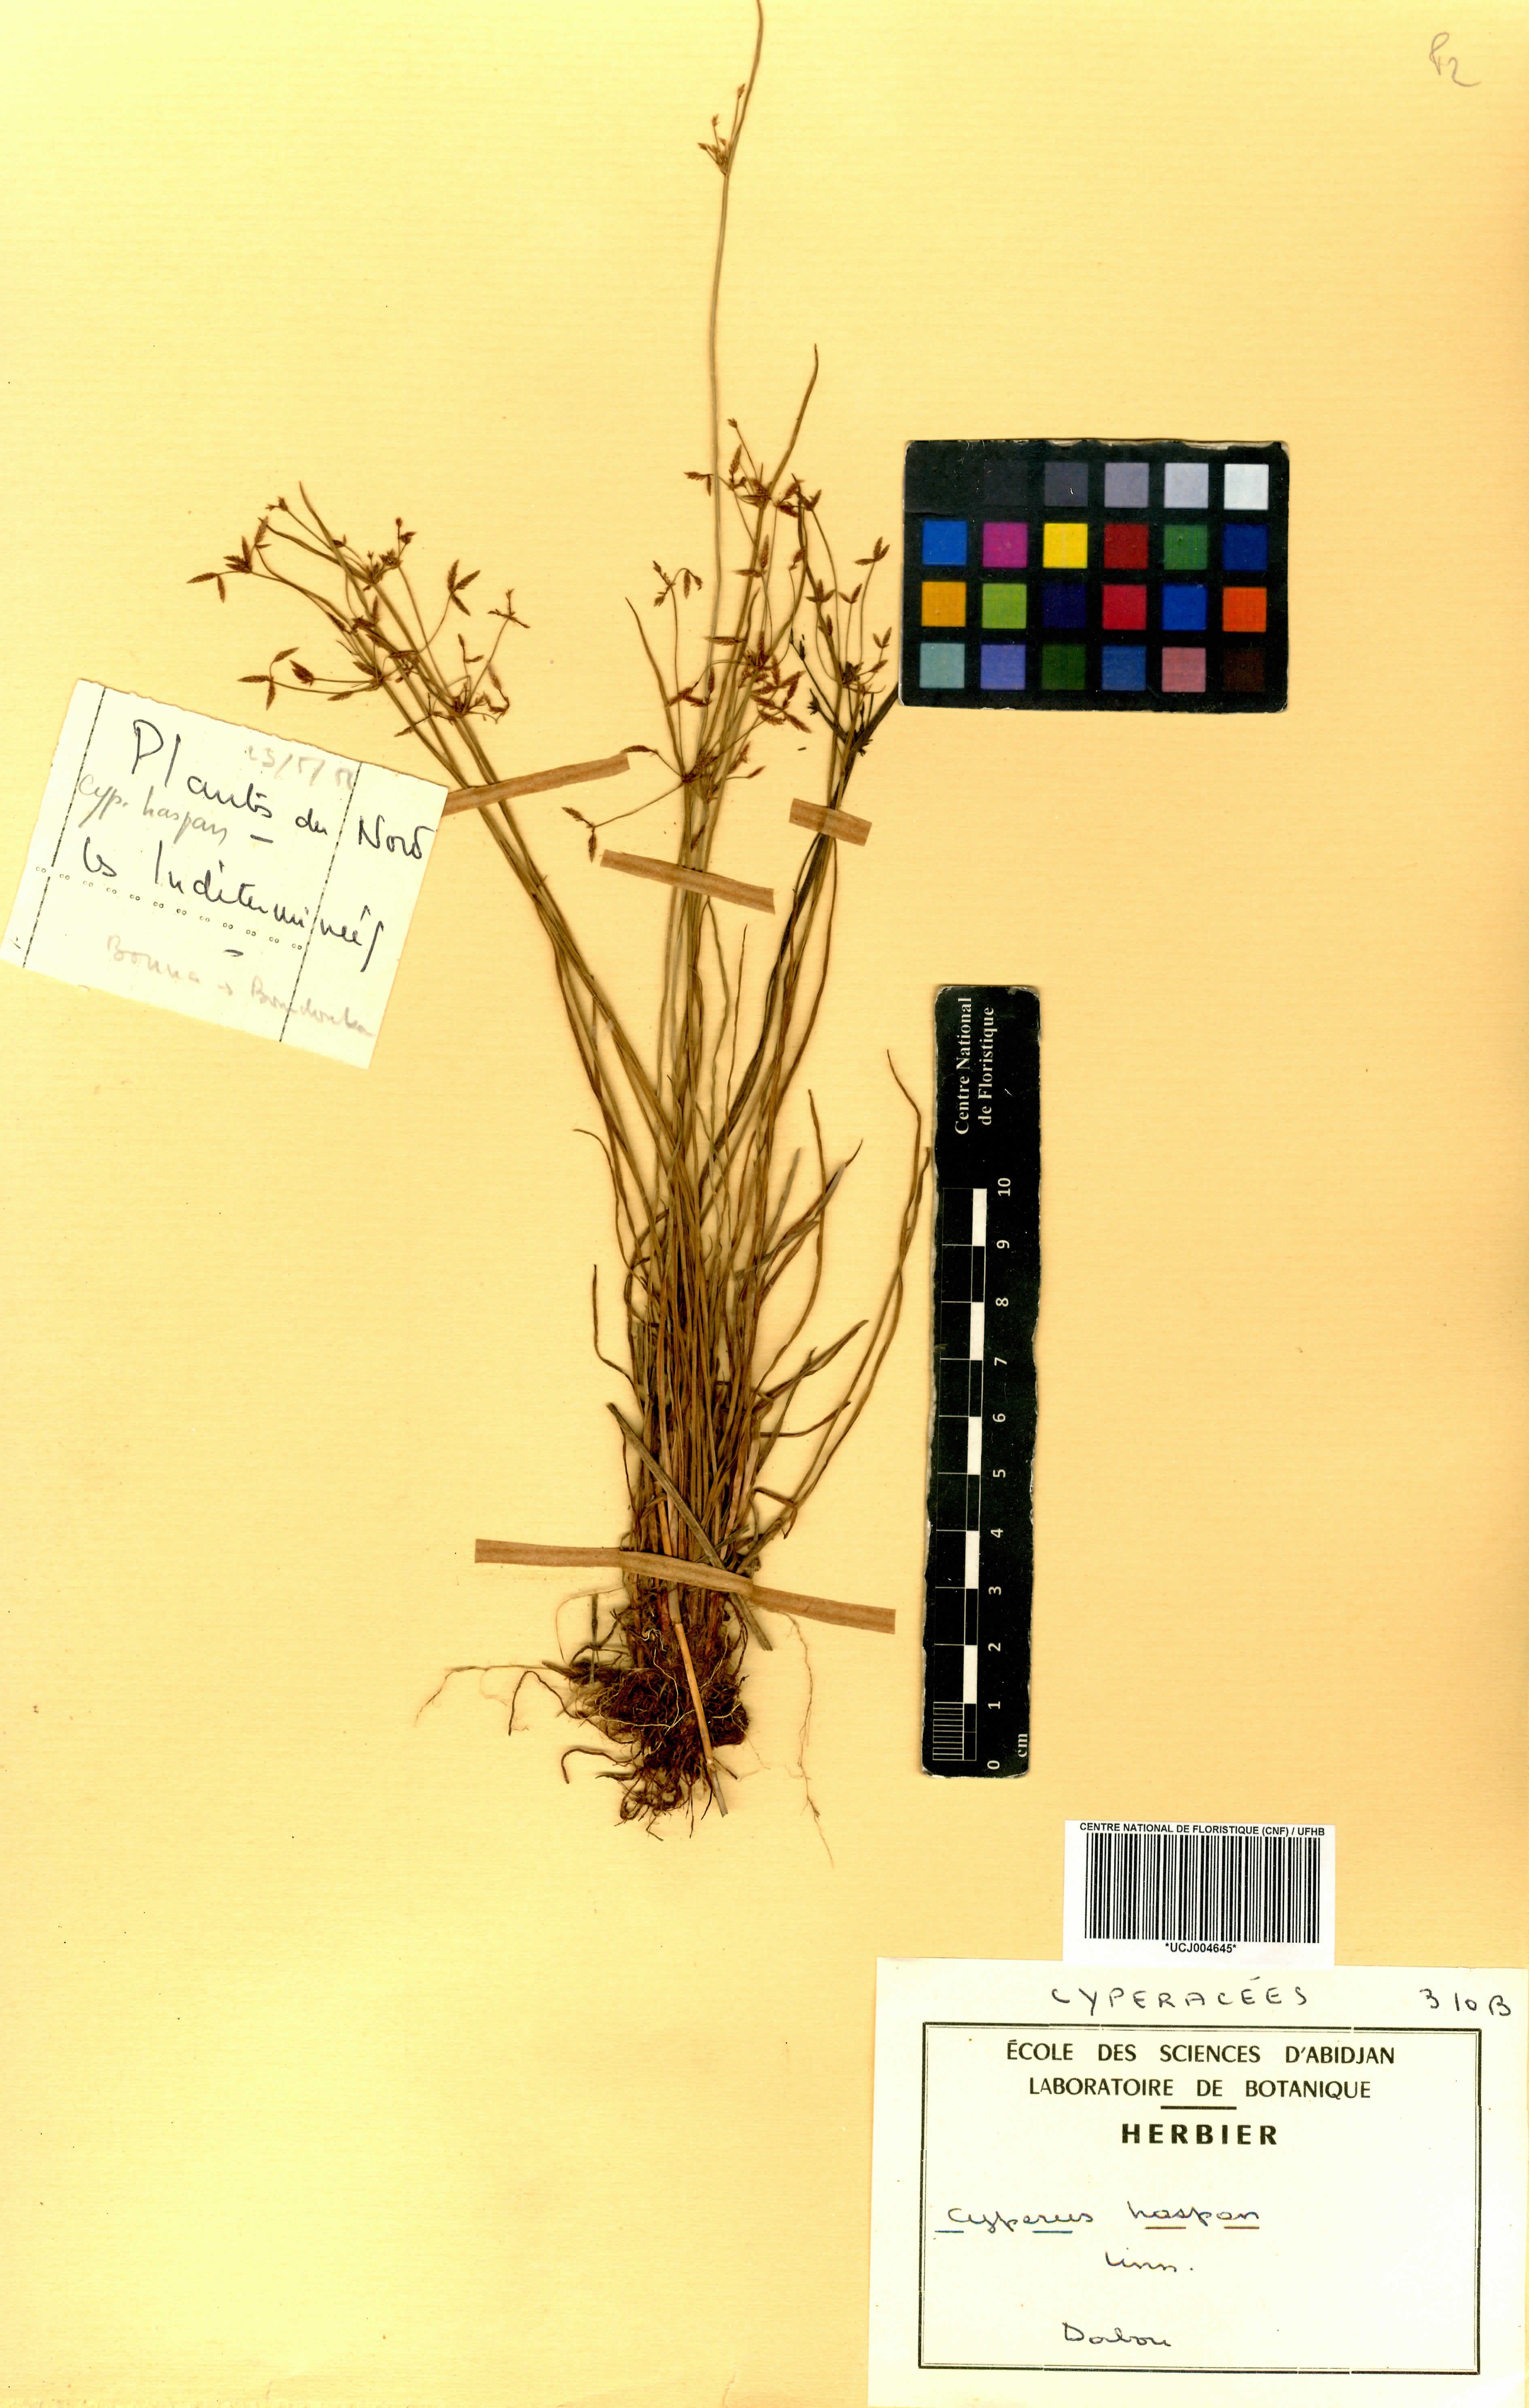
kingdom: Plantae
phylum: Tracheophyta
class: Liliopsida
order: Poales
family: Cyperaceae
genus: Cyperus
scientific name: Cyperus haspan
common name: Haspan flatsedge
